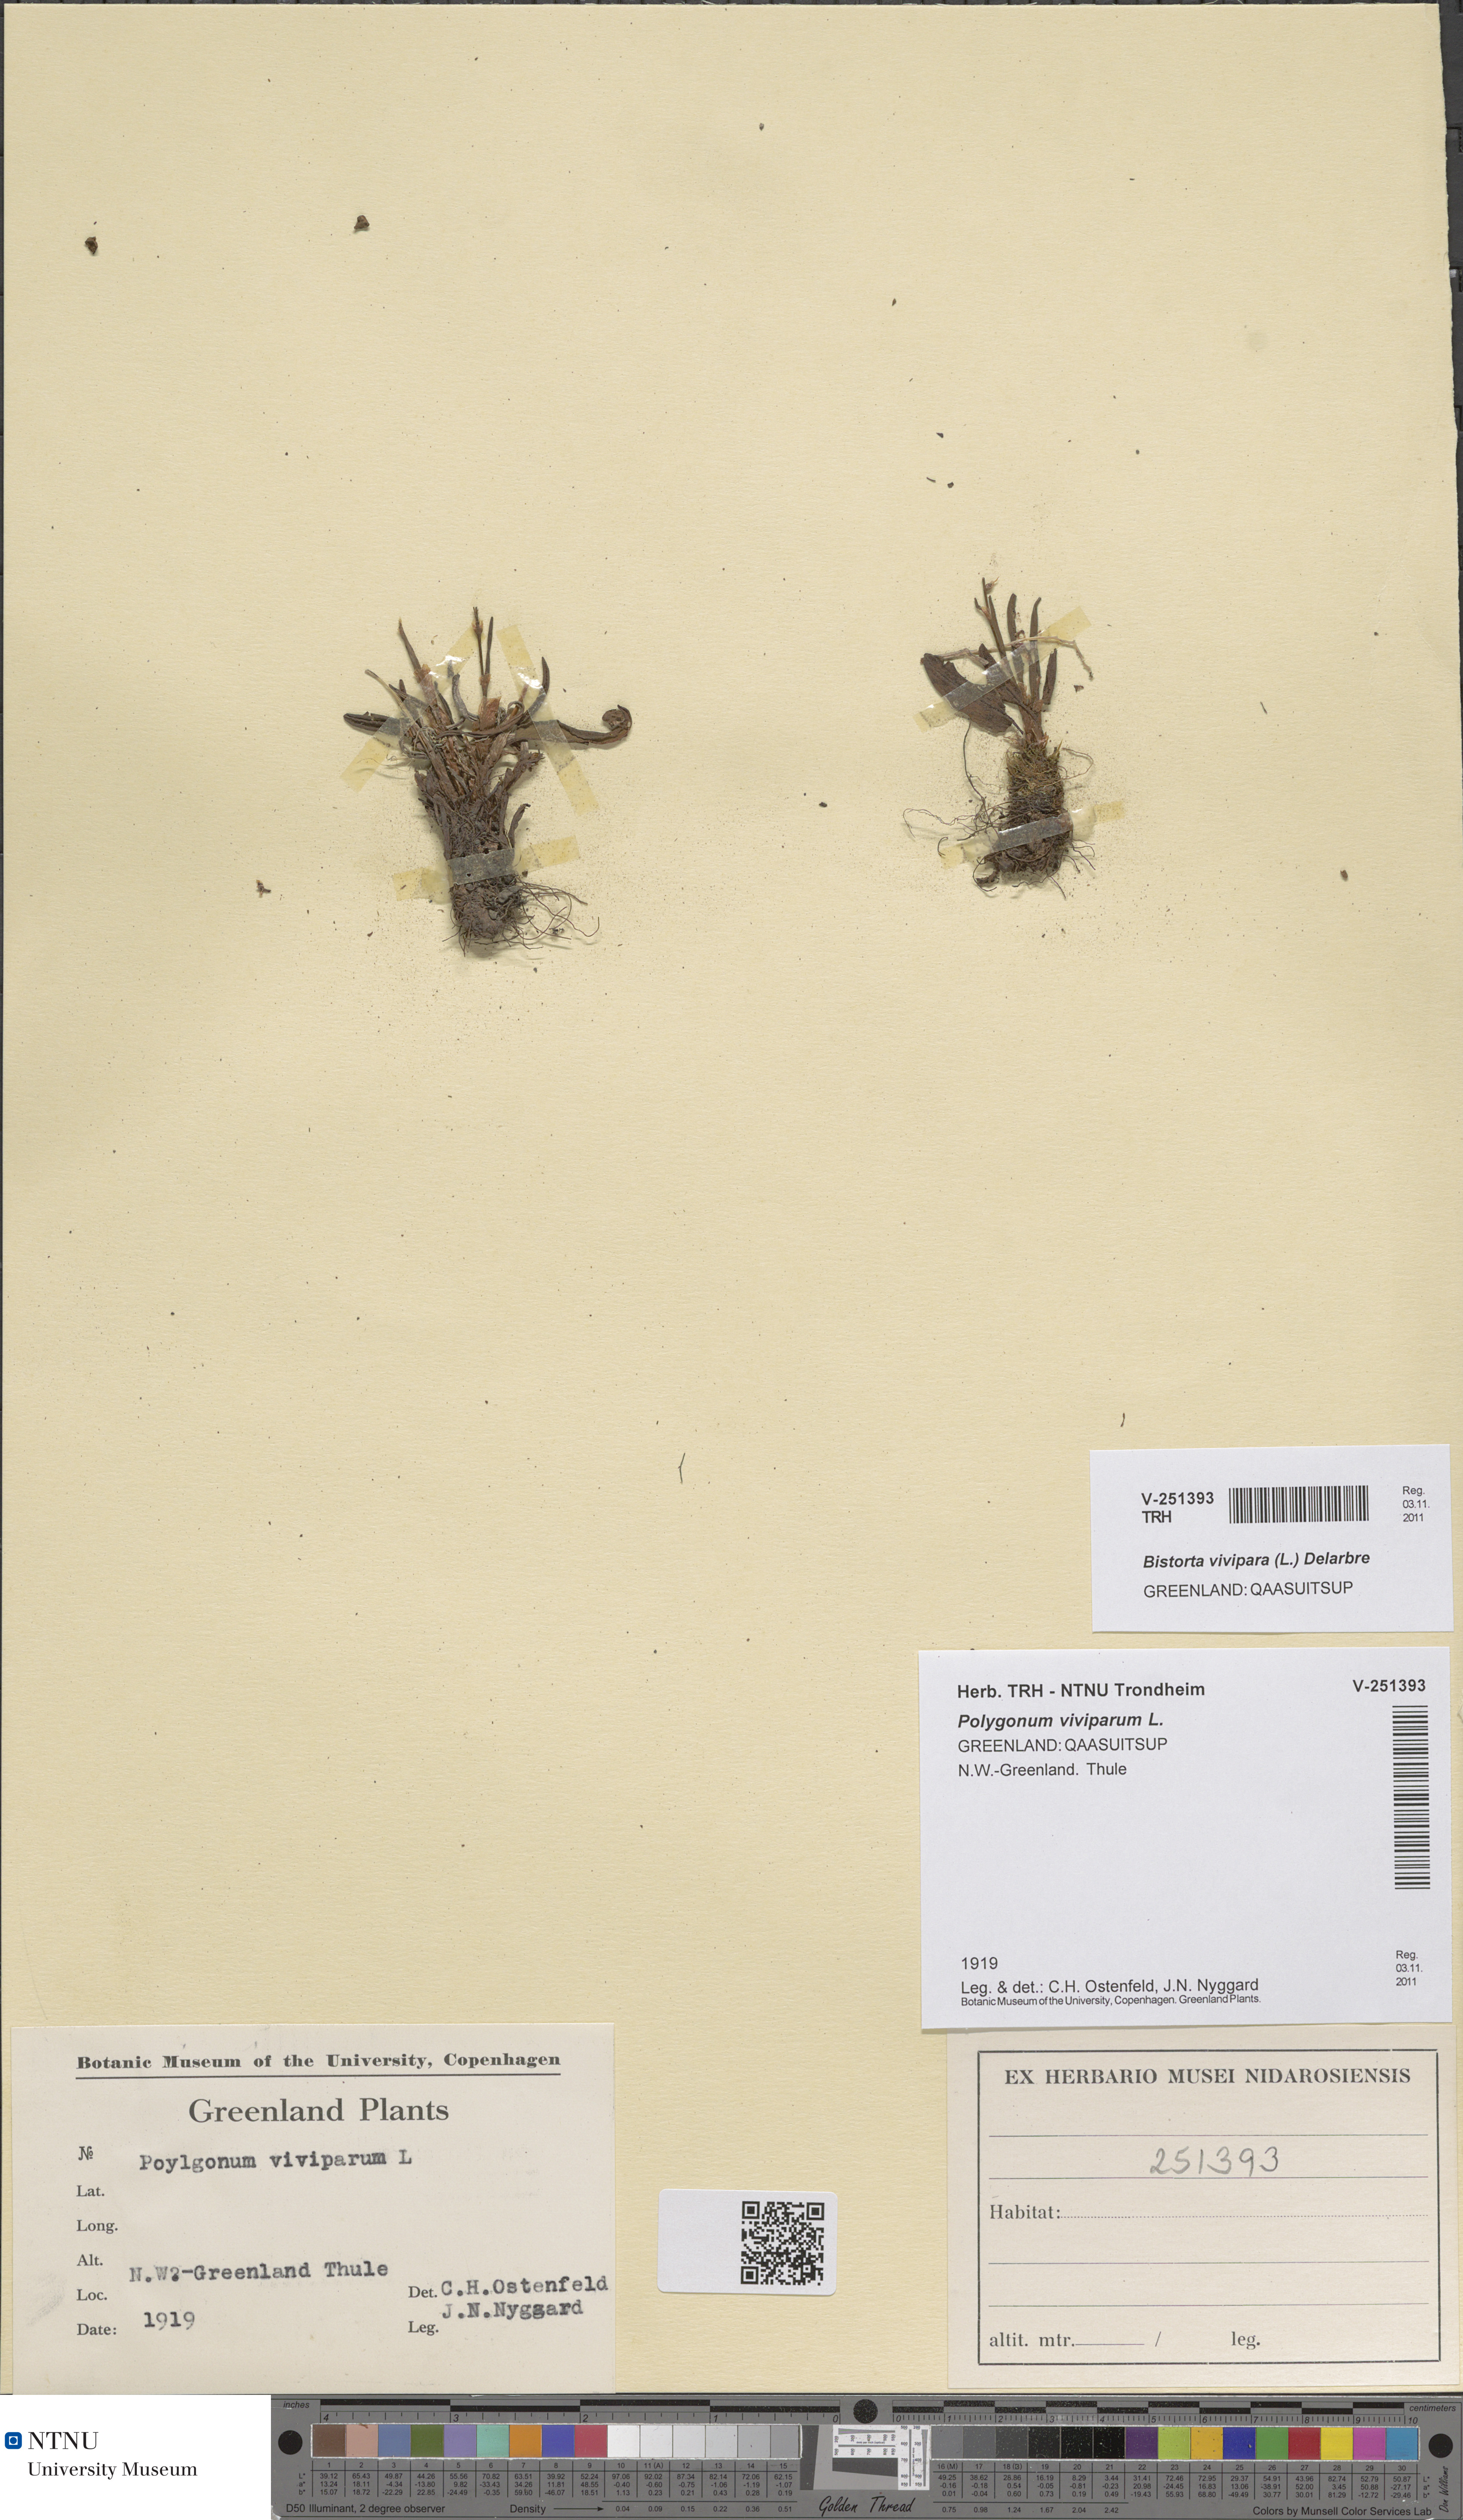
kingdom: Plantae
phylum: Tracheophyta
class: Magnoliopsida
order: Caryophyllales
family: Polygonaceae
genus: Bistorta
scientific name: Bistorta vivipara
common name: Alpine bistort
